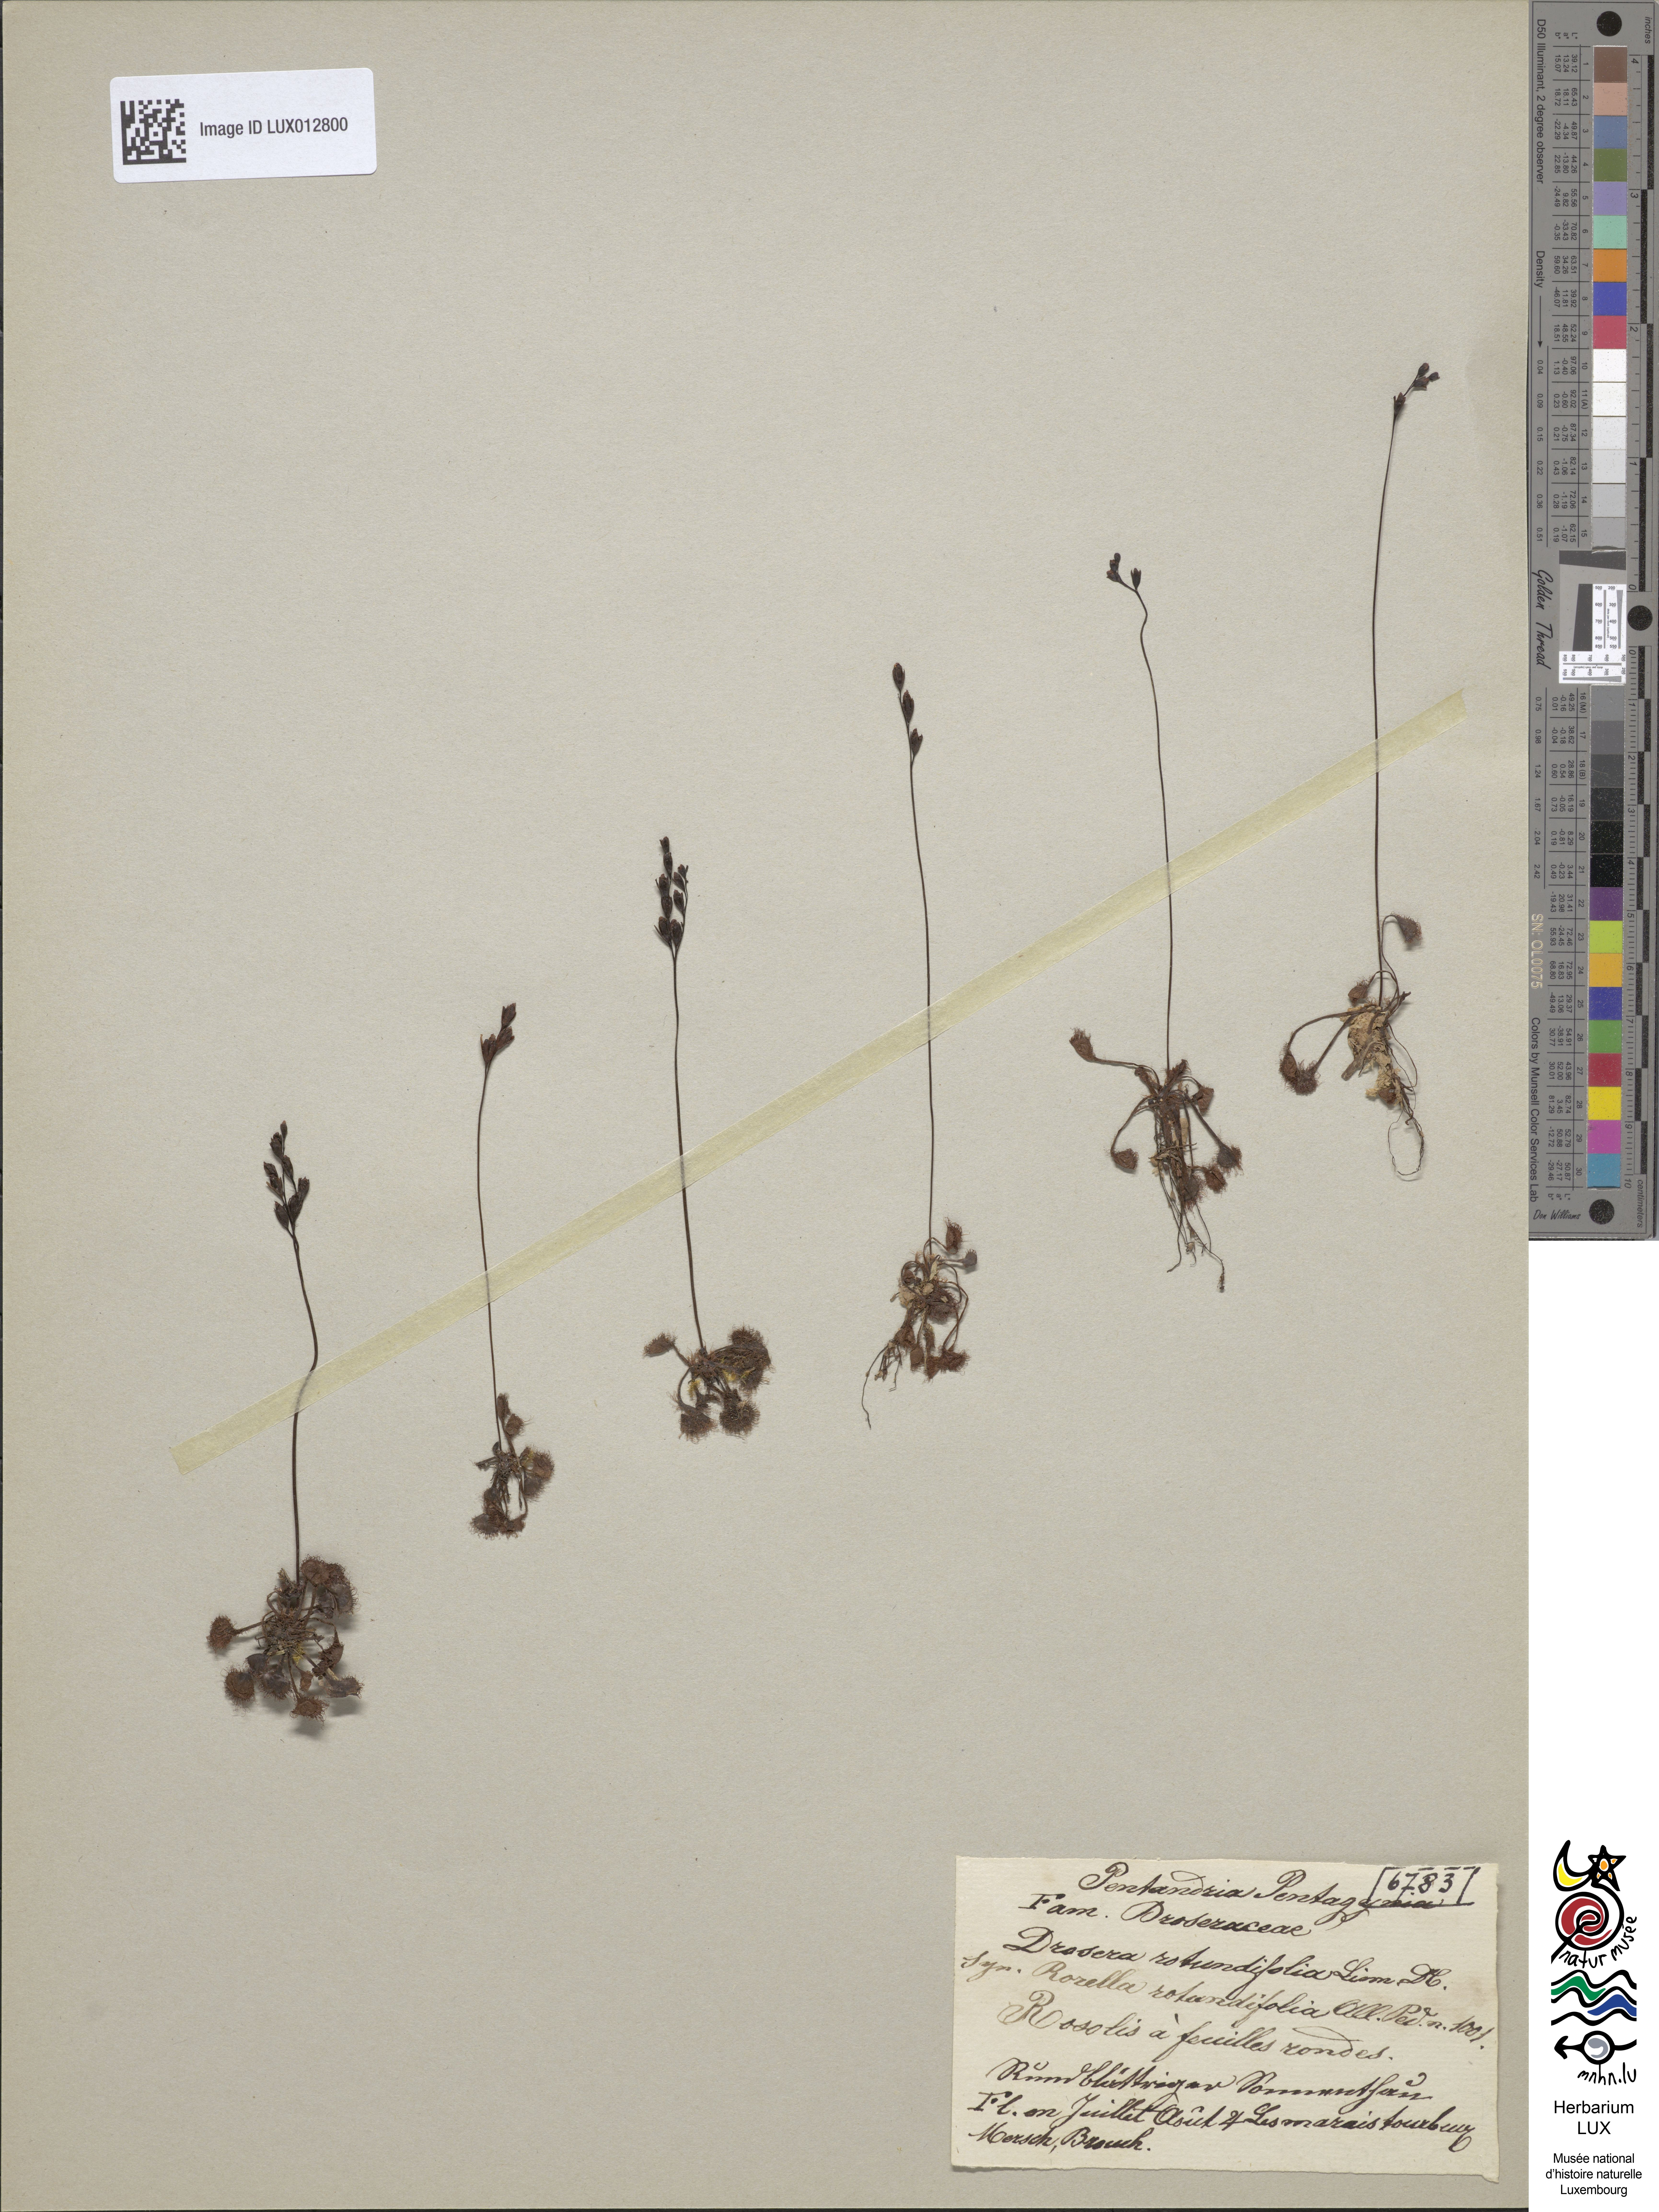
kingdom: Plantae
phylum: Tracheophyta
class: Magnoliopsida
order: Caryophyllales
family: Droseraceae
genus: Drosera
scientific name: Drosera rotundifolia
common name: Round-leaved sundew
